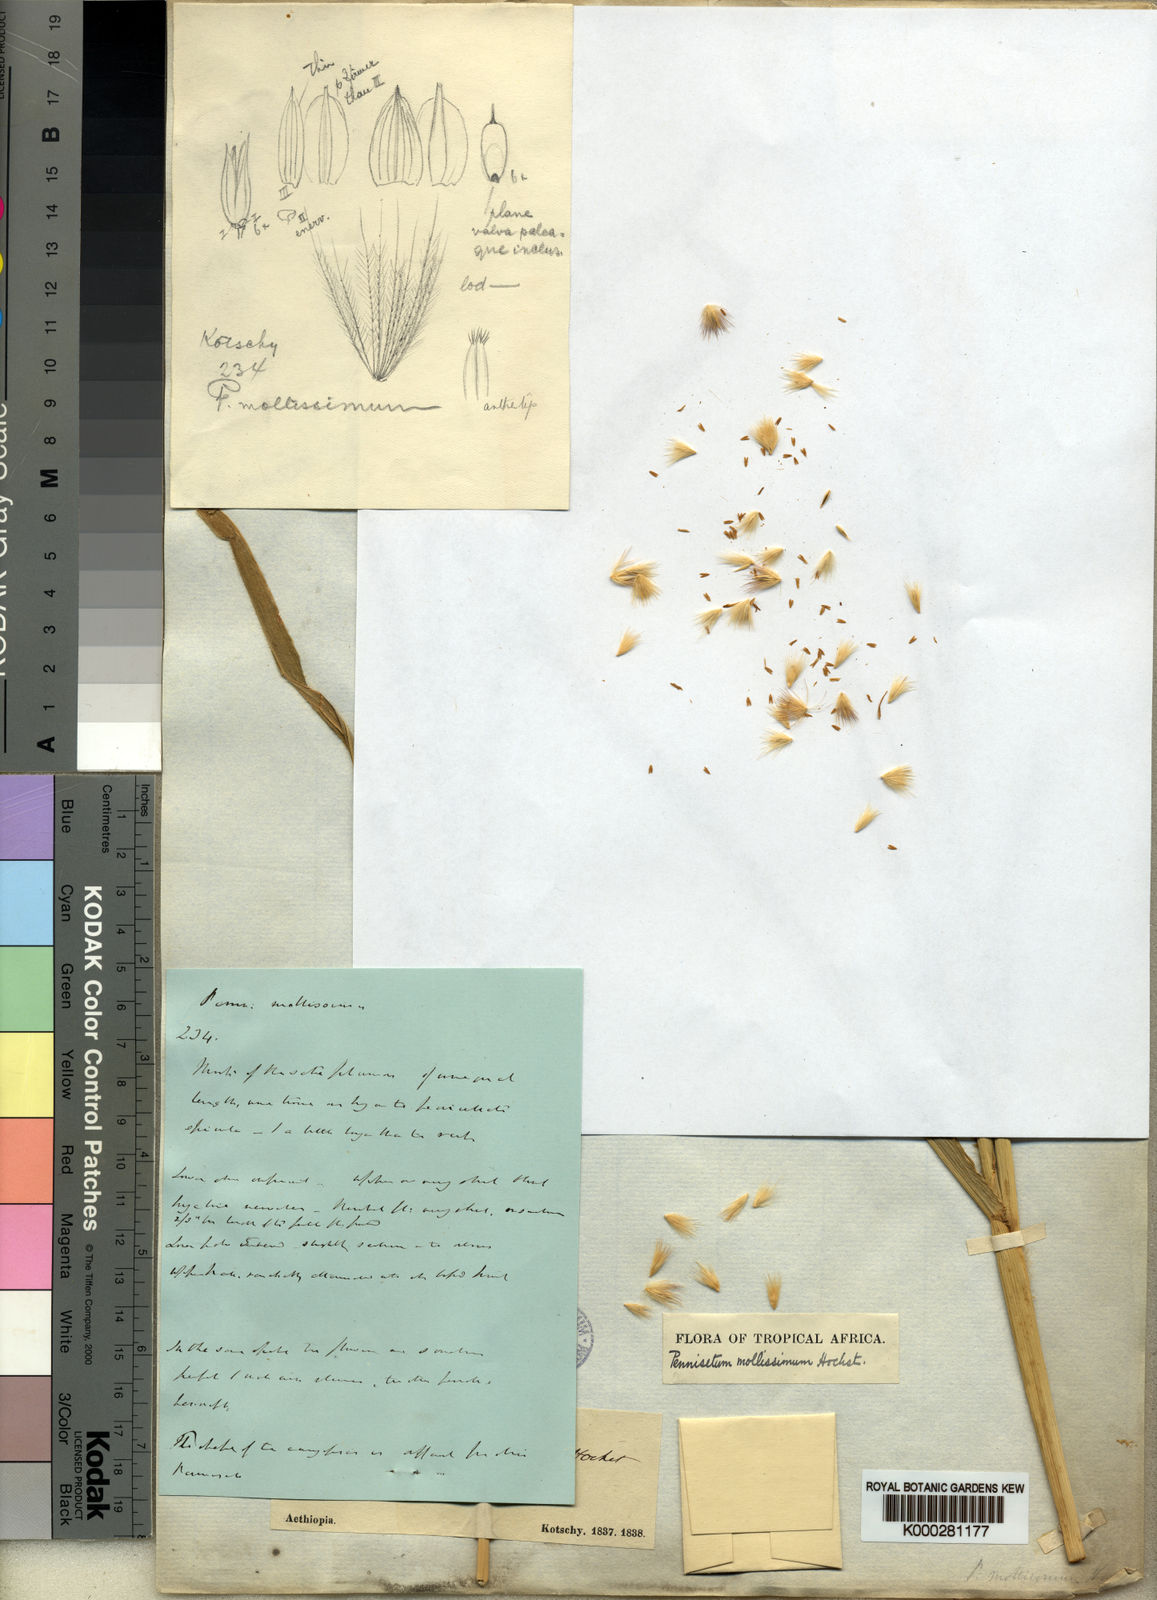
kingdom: Plantae
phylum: Tracheophyta
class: Liliopsida
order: Poales
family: Poaceae
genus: Cenchrus
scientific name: Cenchrus violaceus
